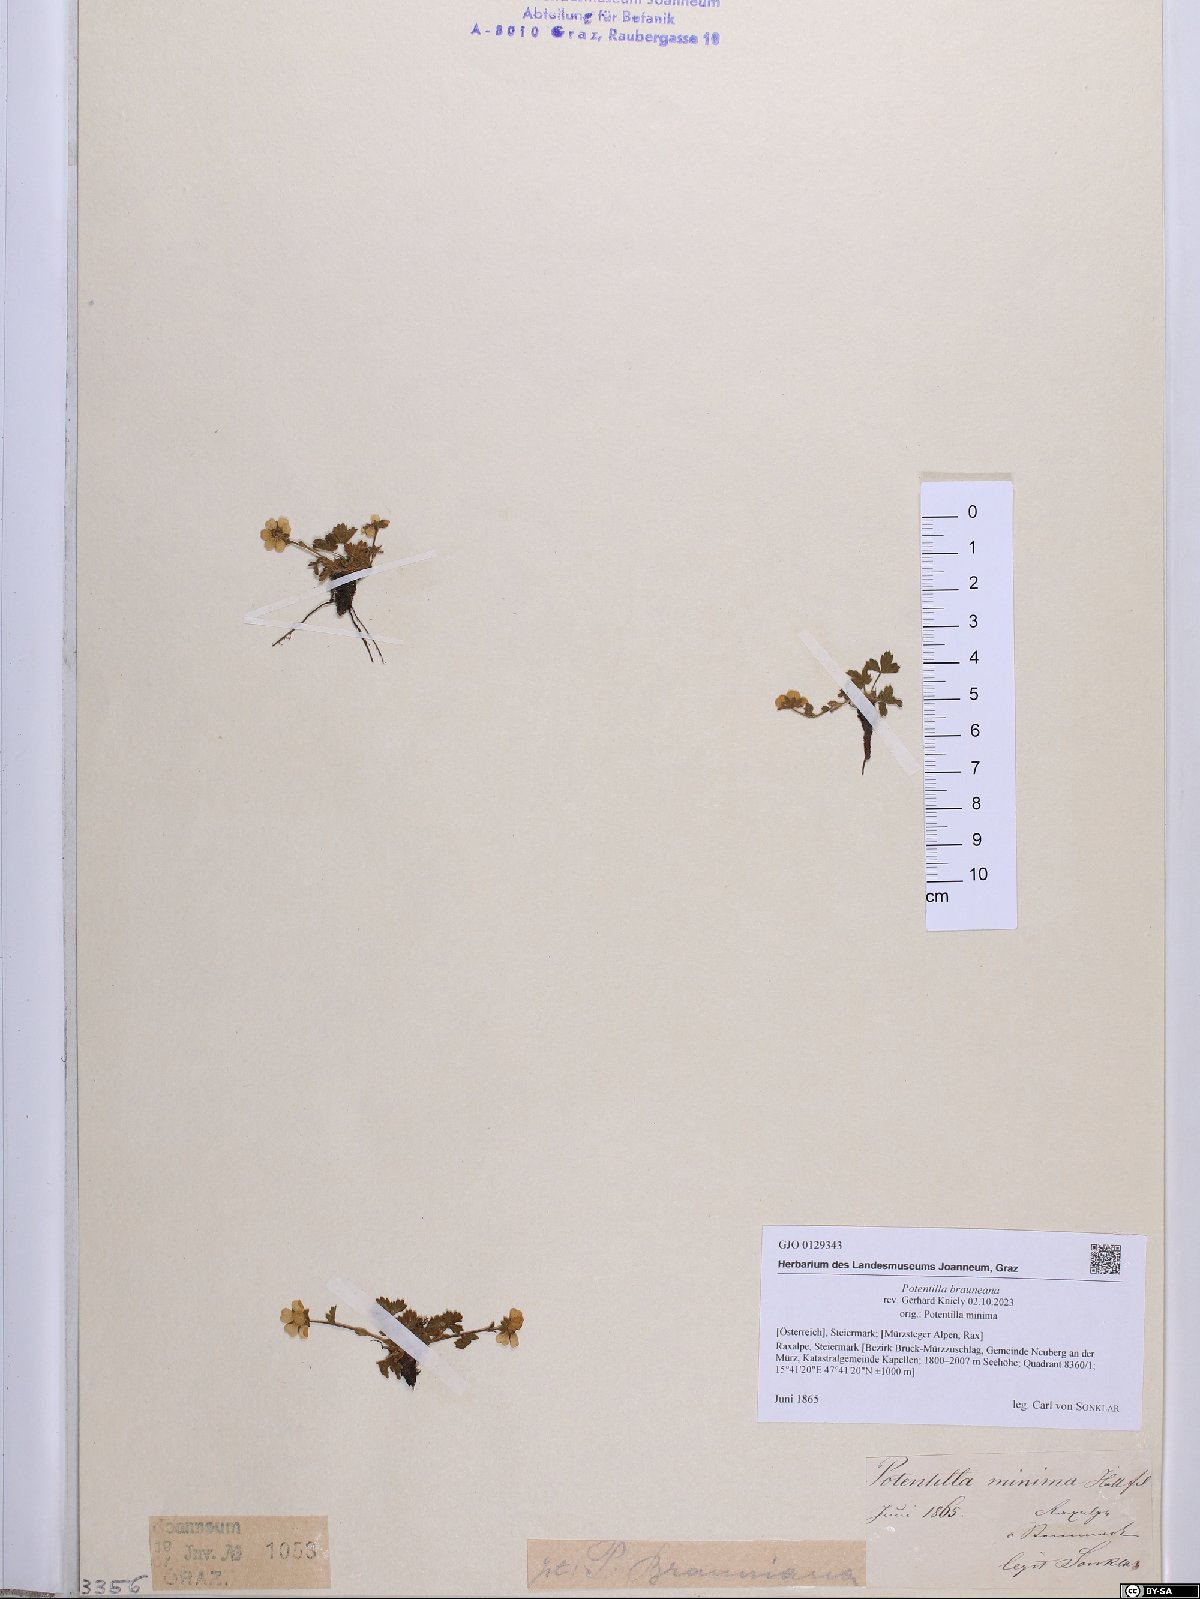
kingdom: Plantae
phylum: Tracheophyta
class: Magnoliopsida
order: Rosales
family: Rosaceae
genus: Potentilla
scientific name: Potentilla brauneana
